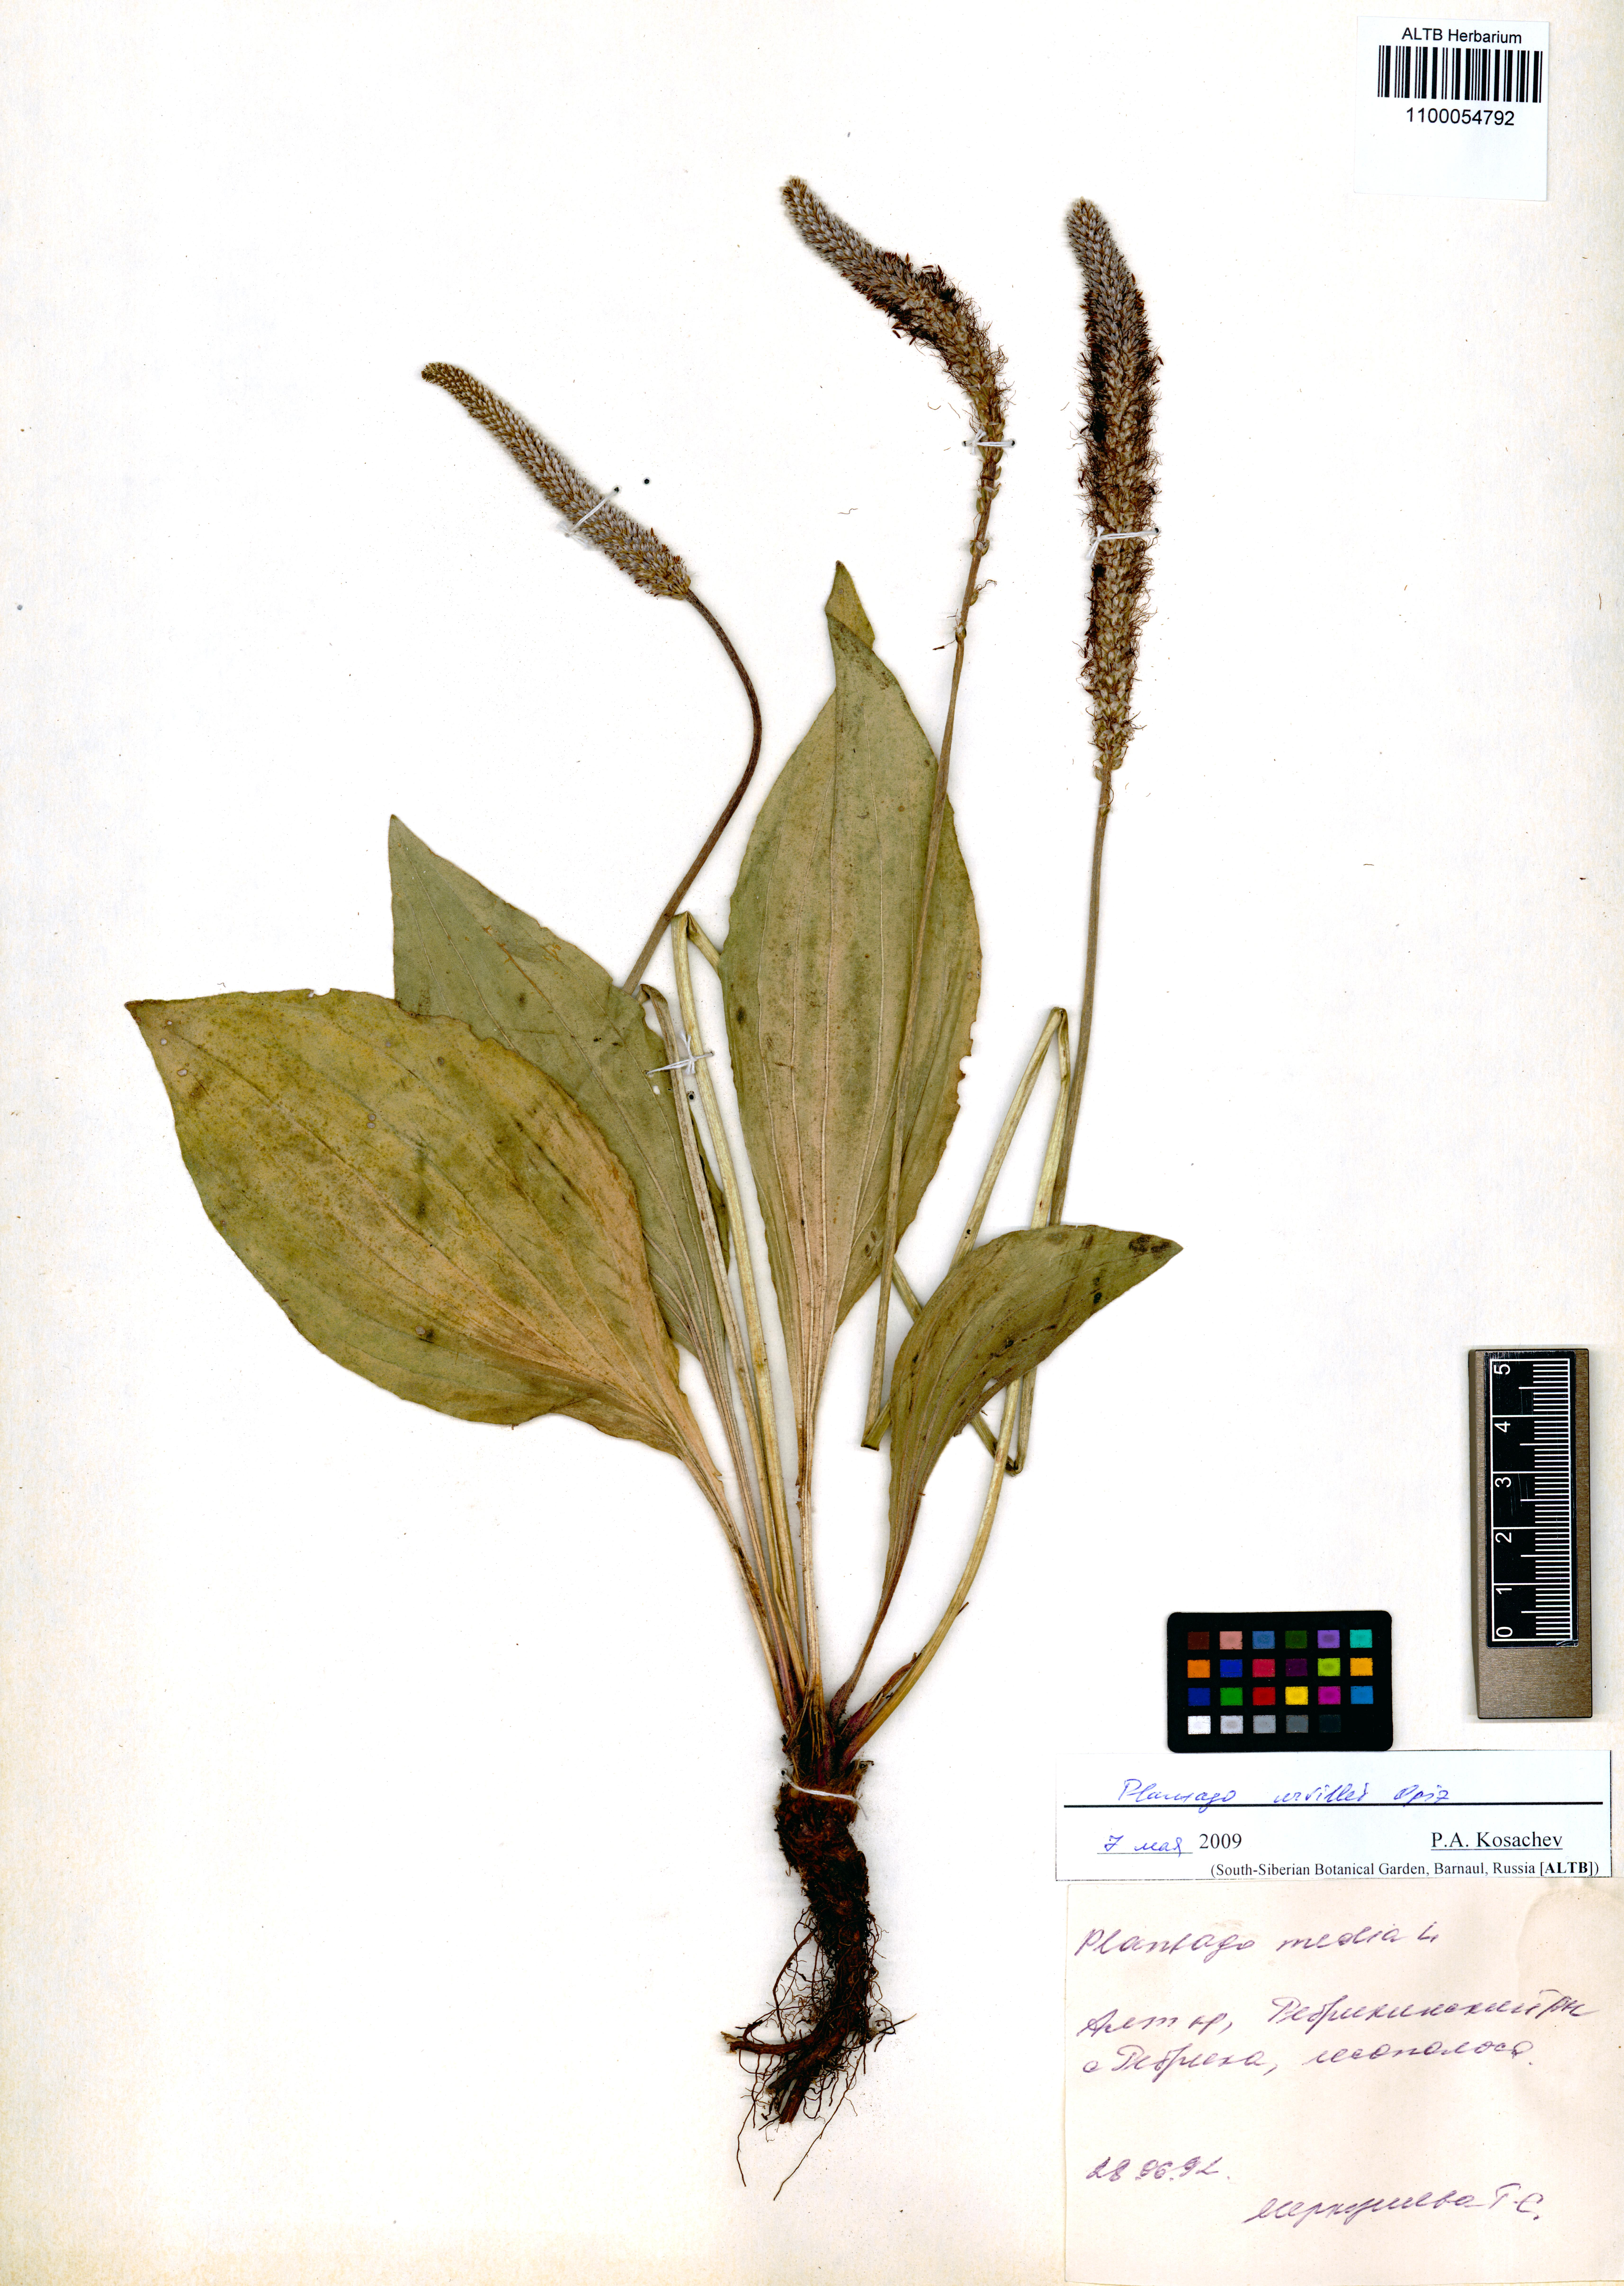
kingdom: Plantae
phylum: Tracheophyta
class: Magnoliopsida
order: Lamiales
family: Plantaginaceae
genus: Plantago
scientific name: Plantago urvillei
